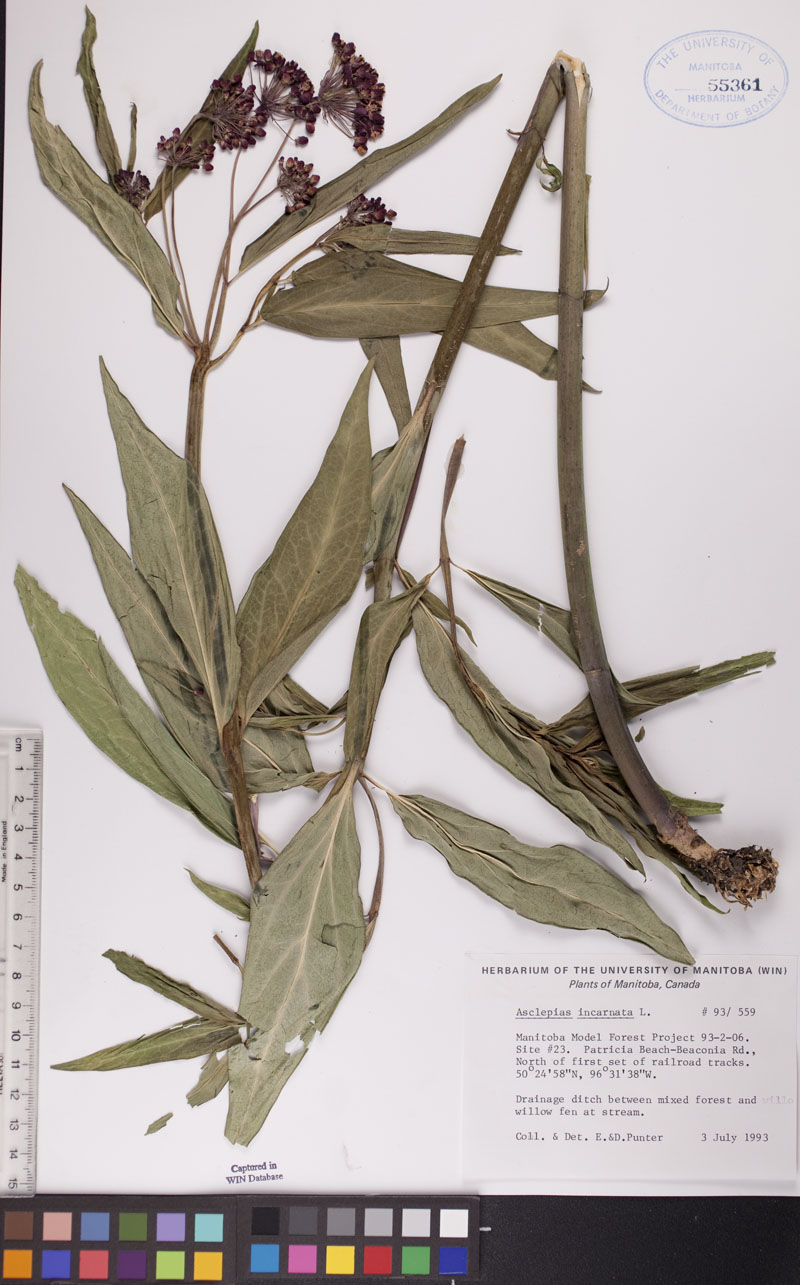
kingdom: Plantae
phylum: Tracheophyta
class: Magnoliopsida
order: Gentianales
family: Apocynaceae
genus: Asclepias
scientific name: Asclepias incarnata
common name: Swamp milkweed
